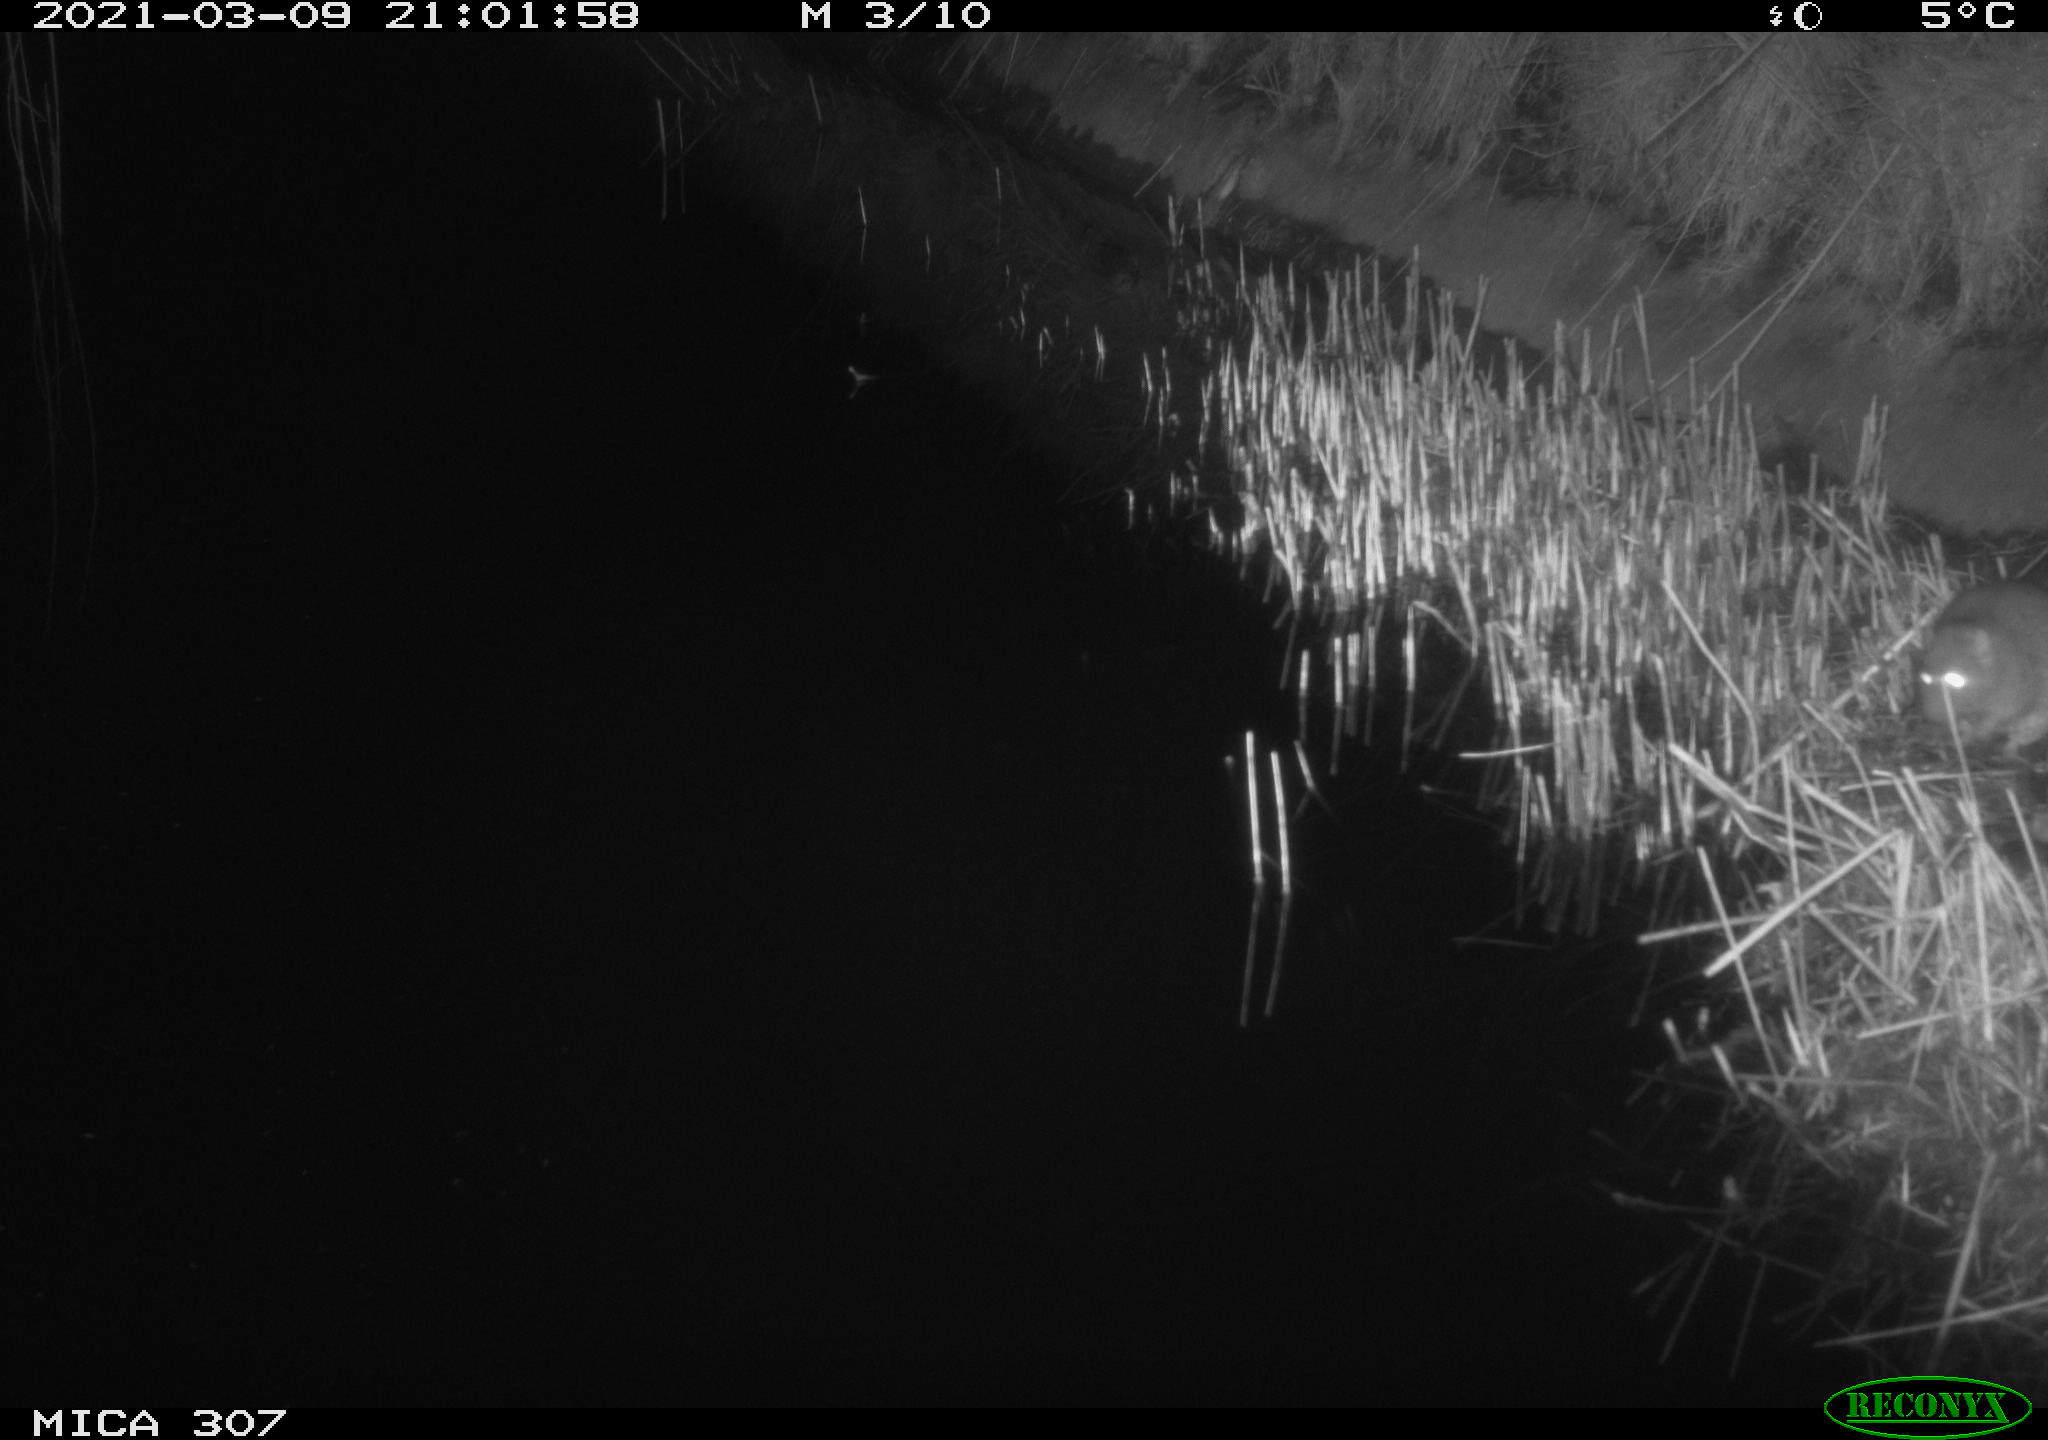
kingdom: Animalia
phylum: Chordata
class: Mammalia
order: Rodentia
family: Muridae
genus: Rattus
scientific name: Rattus norvegicus
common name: Brown rat
